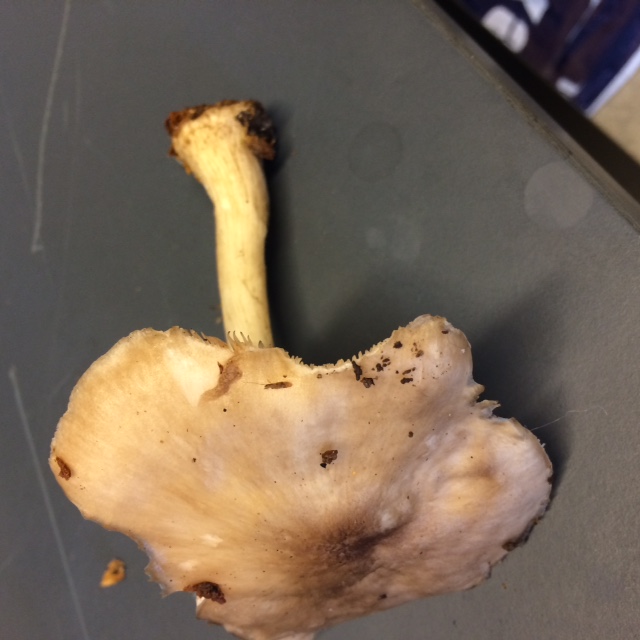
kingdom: Fungi
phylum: Basidiomycota
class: Agaricomycetes
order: Agaricales
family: Pluteaceae
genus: Pluteus
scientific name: Pluteus salicinus
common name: stiv skærmhat
